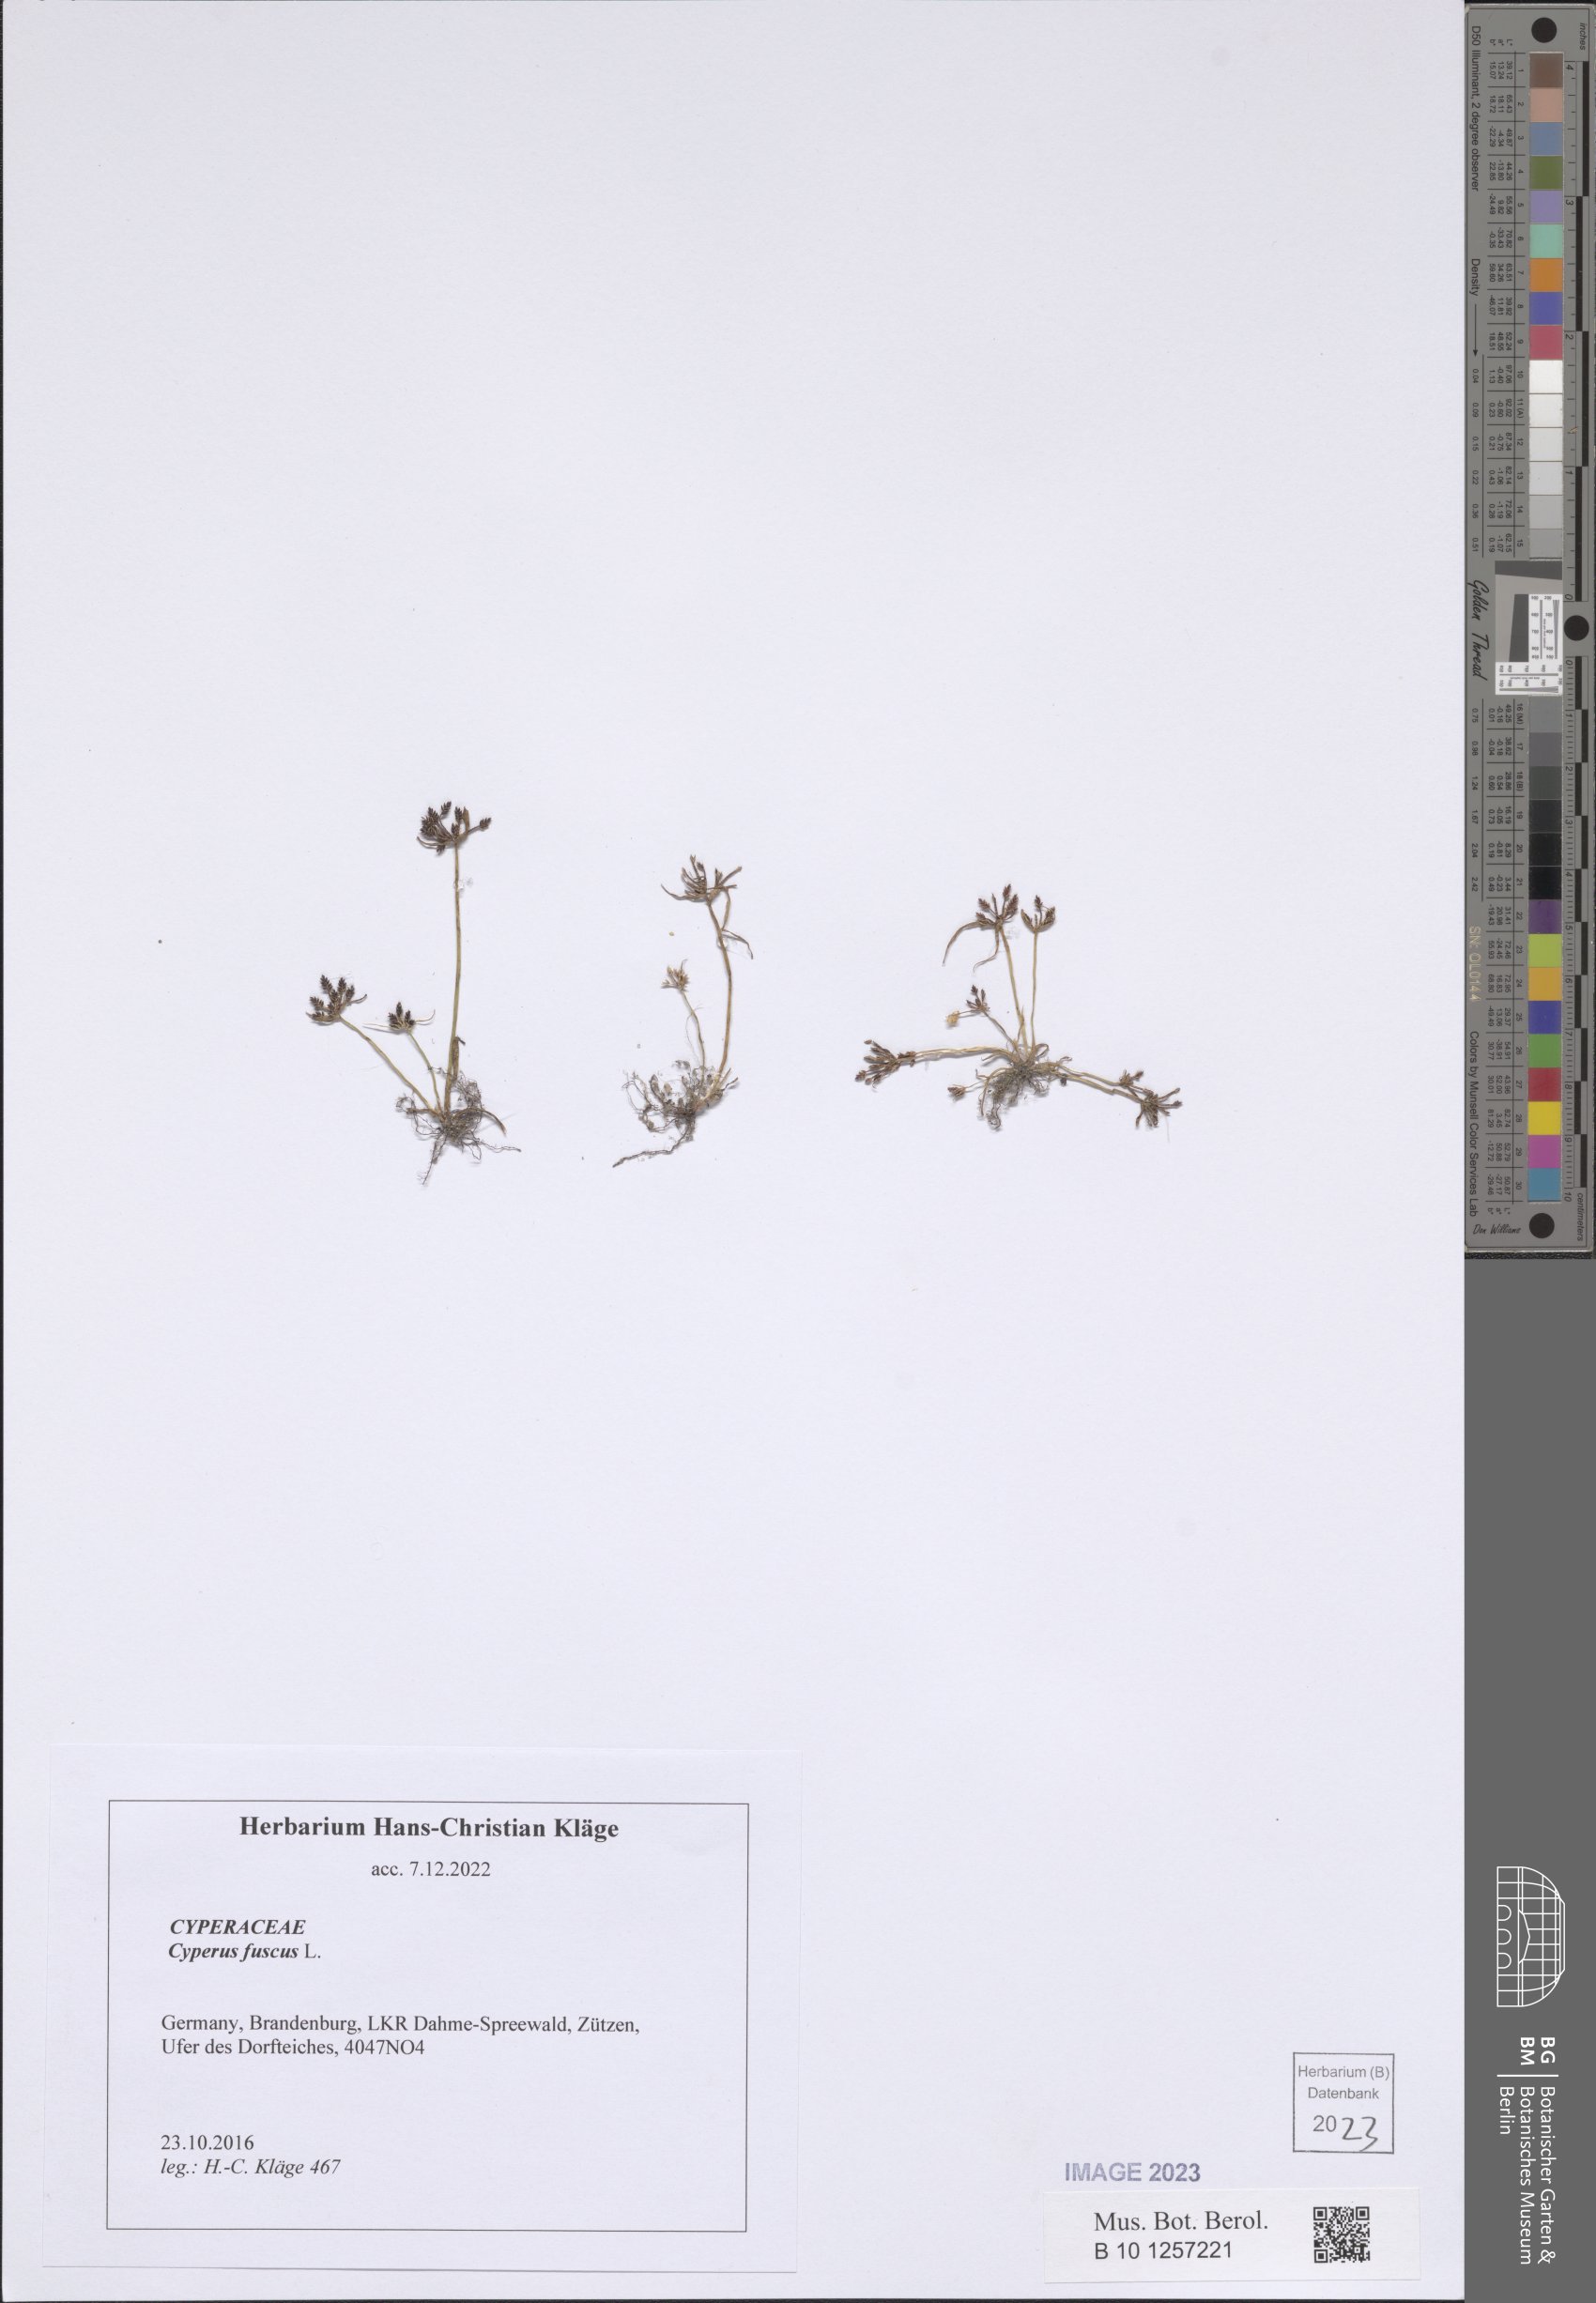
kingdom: Plantae
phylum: Tracheophyta
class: Liliopsida
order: Poales
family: Cyperaceae
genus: Cyperus
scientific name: Cyperus fuscus
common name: Brown galingale
